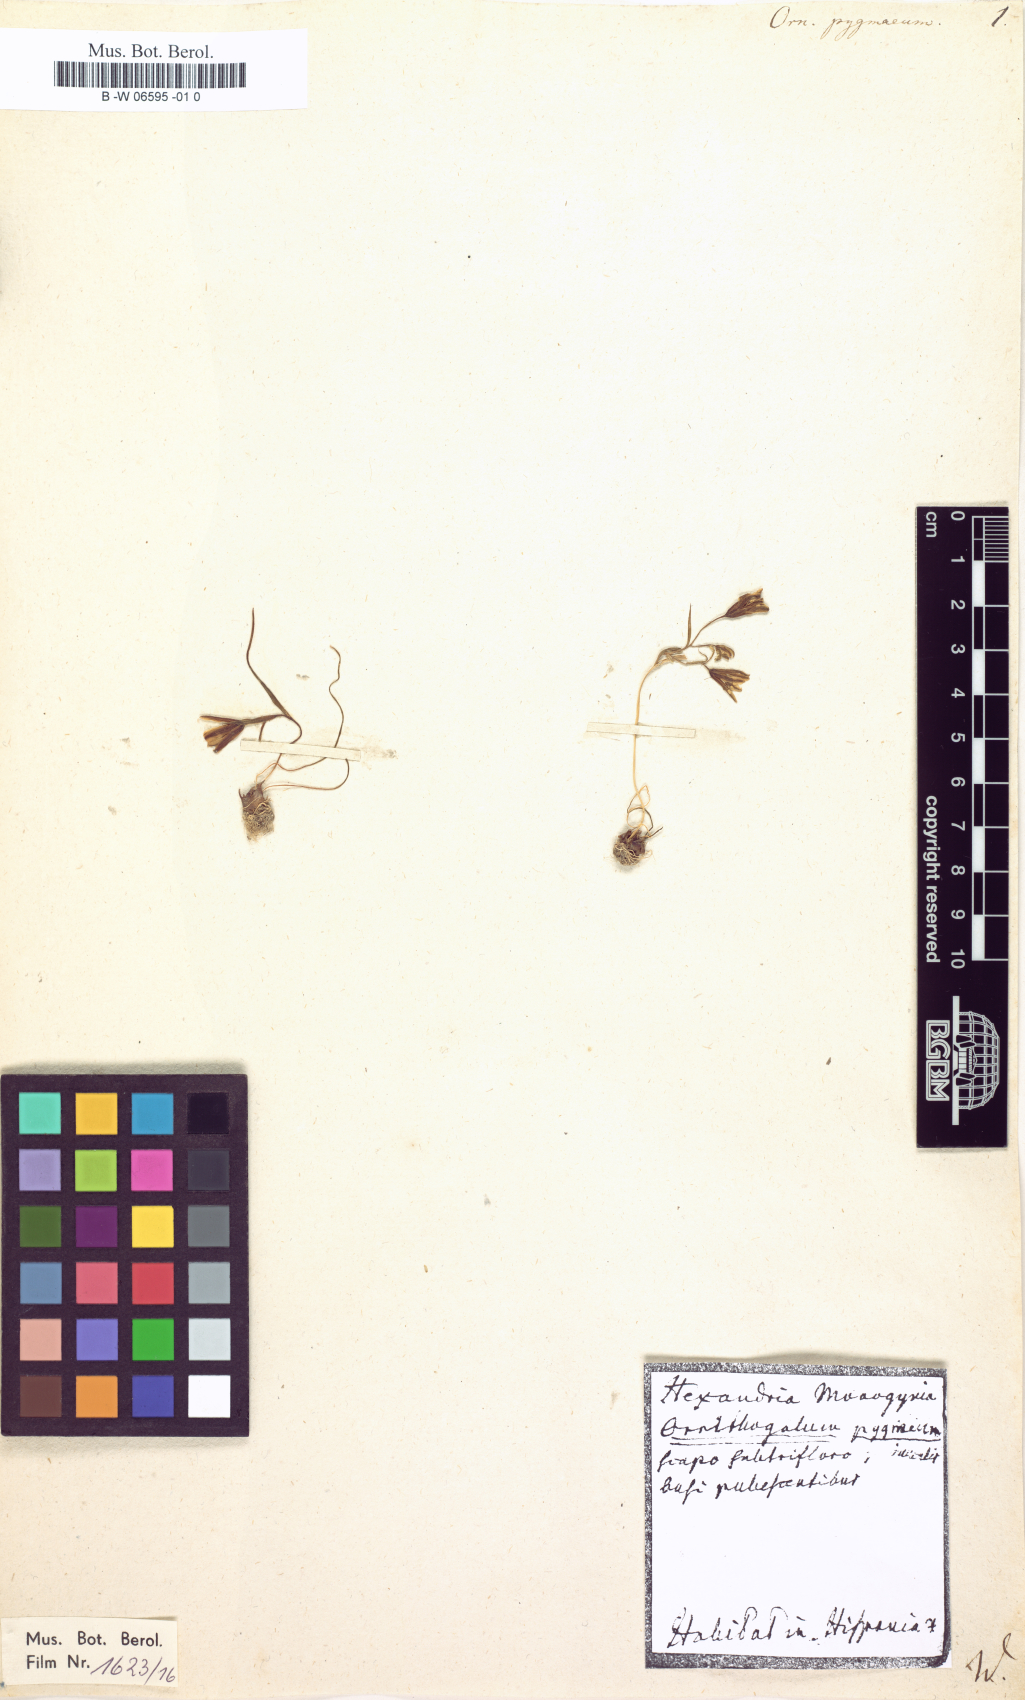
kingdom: Plantae
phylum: Tracheophyta
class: Liliopsida
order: Liliales
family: Liliaceae
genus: Gagea
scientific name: Gagea bohemica
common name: Early star-of-bethlehem
